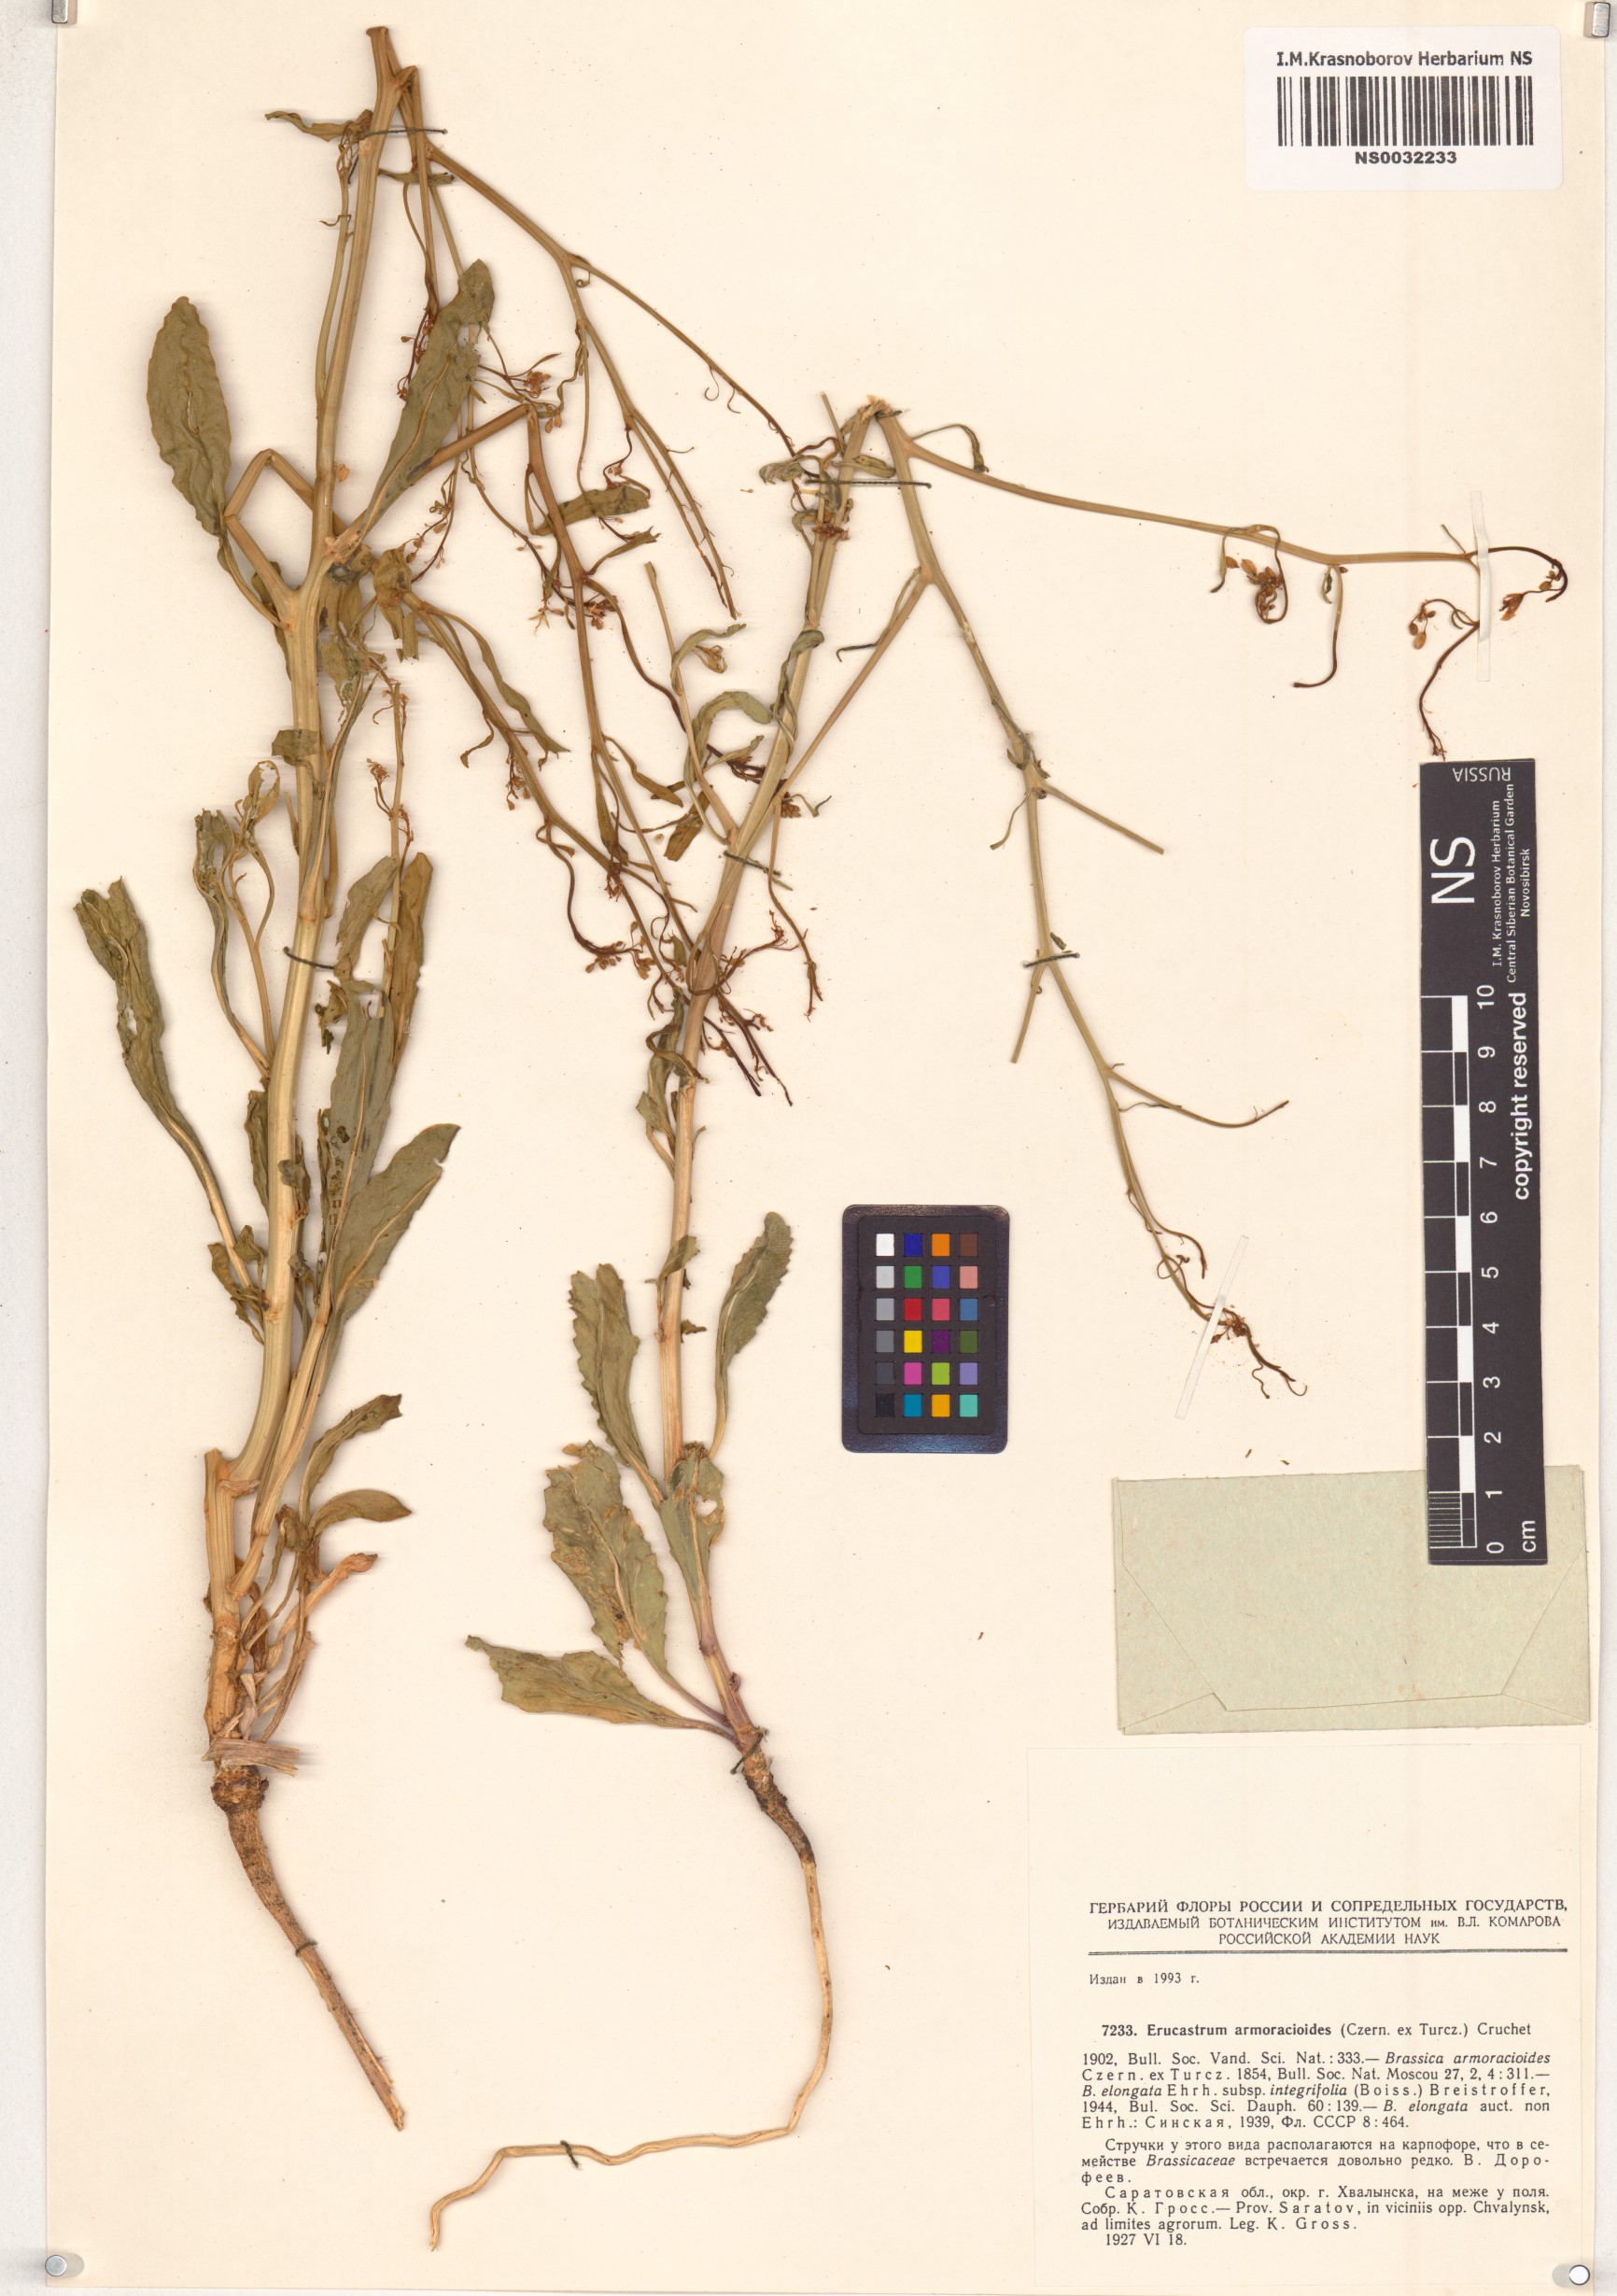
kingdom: Plantae
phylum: Tracheophyta
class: Magnoliopsida
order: Brassicales
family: Brassicaceae
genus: Brassica
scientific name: Brassica elongata
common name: Long-stalked rape
